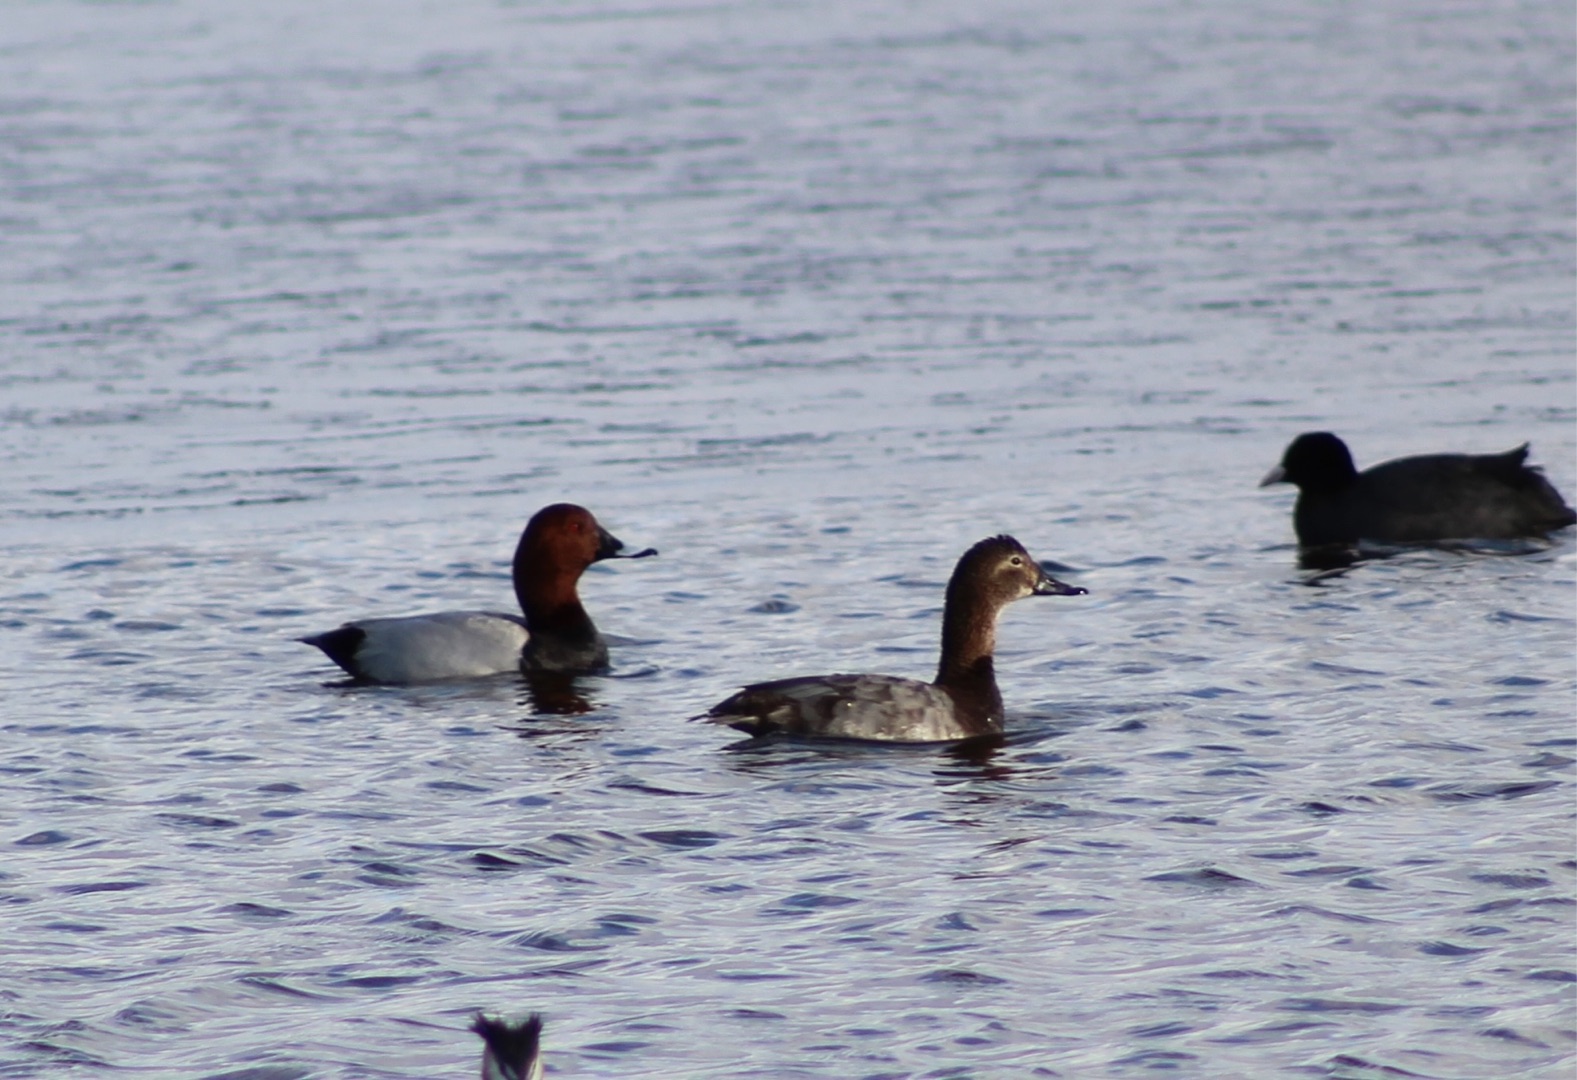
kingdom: Animalia
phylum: Chordata
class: Aves
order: Anseriformes
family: Anatidae
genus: Aythya
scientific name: Aythya ferina
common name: Taffeland
